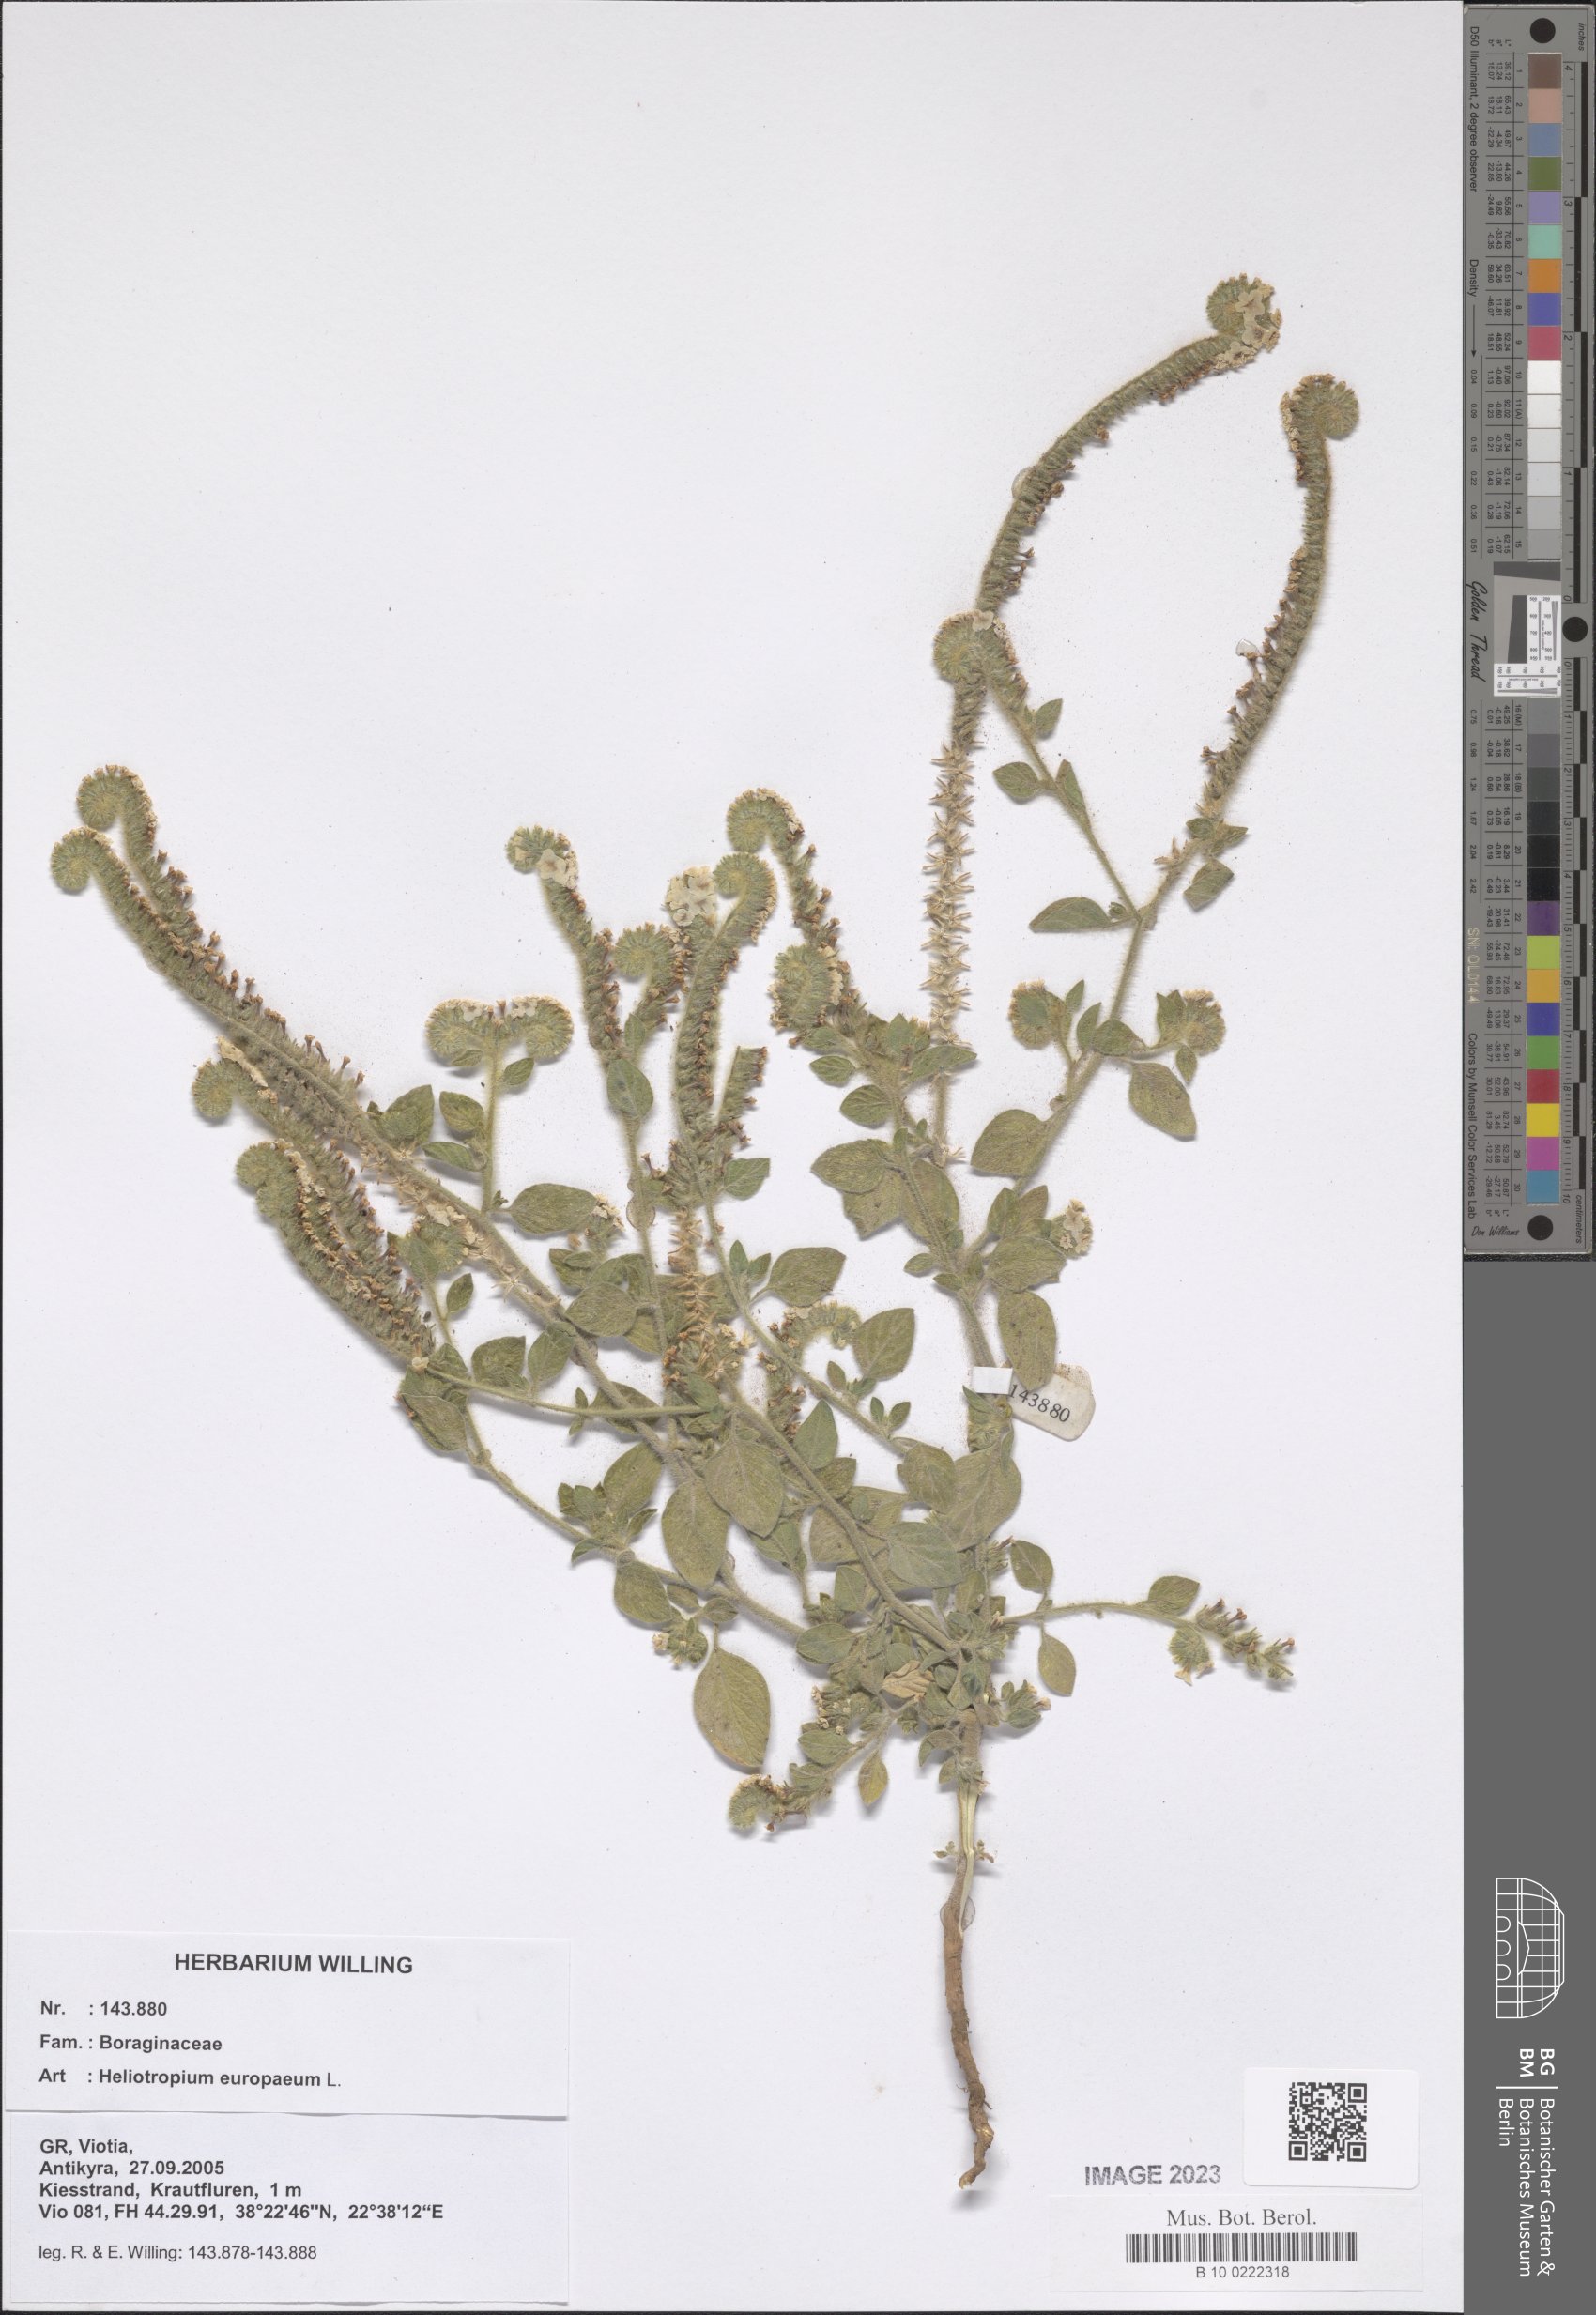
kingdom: Plantae
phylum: Tracheophyta
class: Magnoliopsida
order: Boraginales
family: Heliotropiaceae
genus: Heliotropium
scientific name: Heliotropium europaeum
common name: European heliotrope
